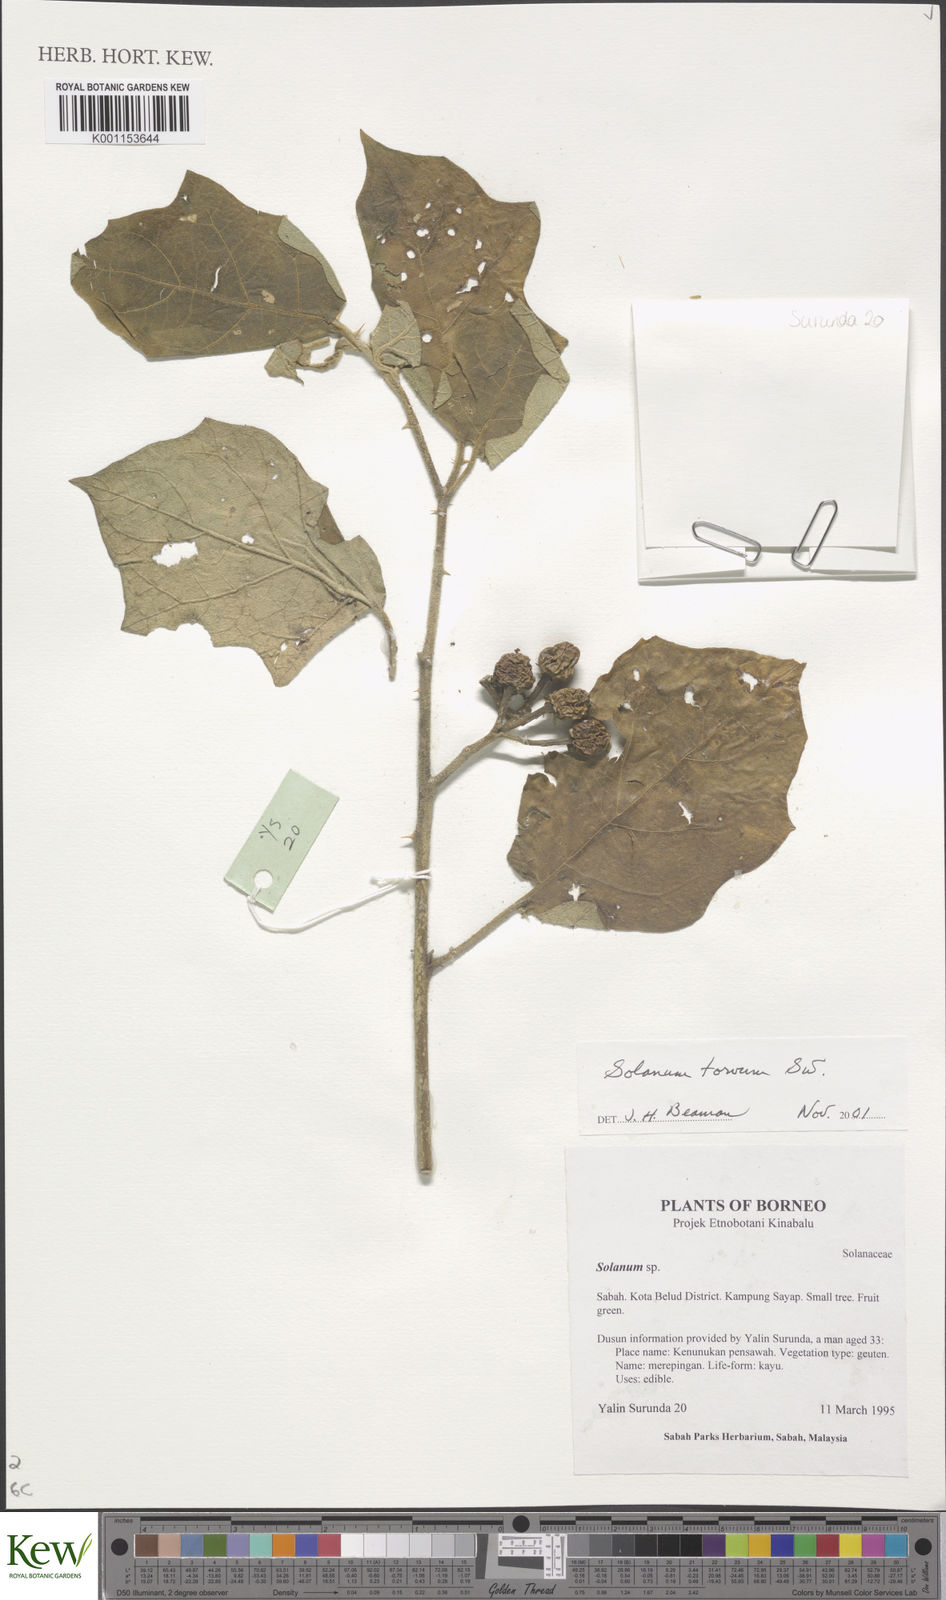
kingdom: Plantae
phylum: Tracheophyta
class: Magnoliopsida
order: Solanales
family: Solanaceae
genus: Solanum
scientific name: Solanum torvum
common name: Turkey berry
